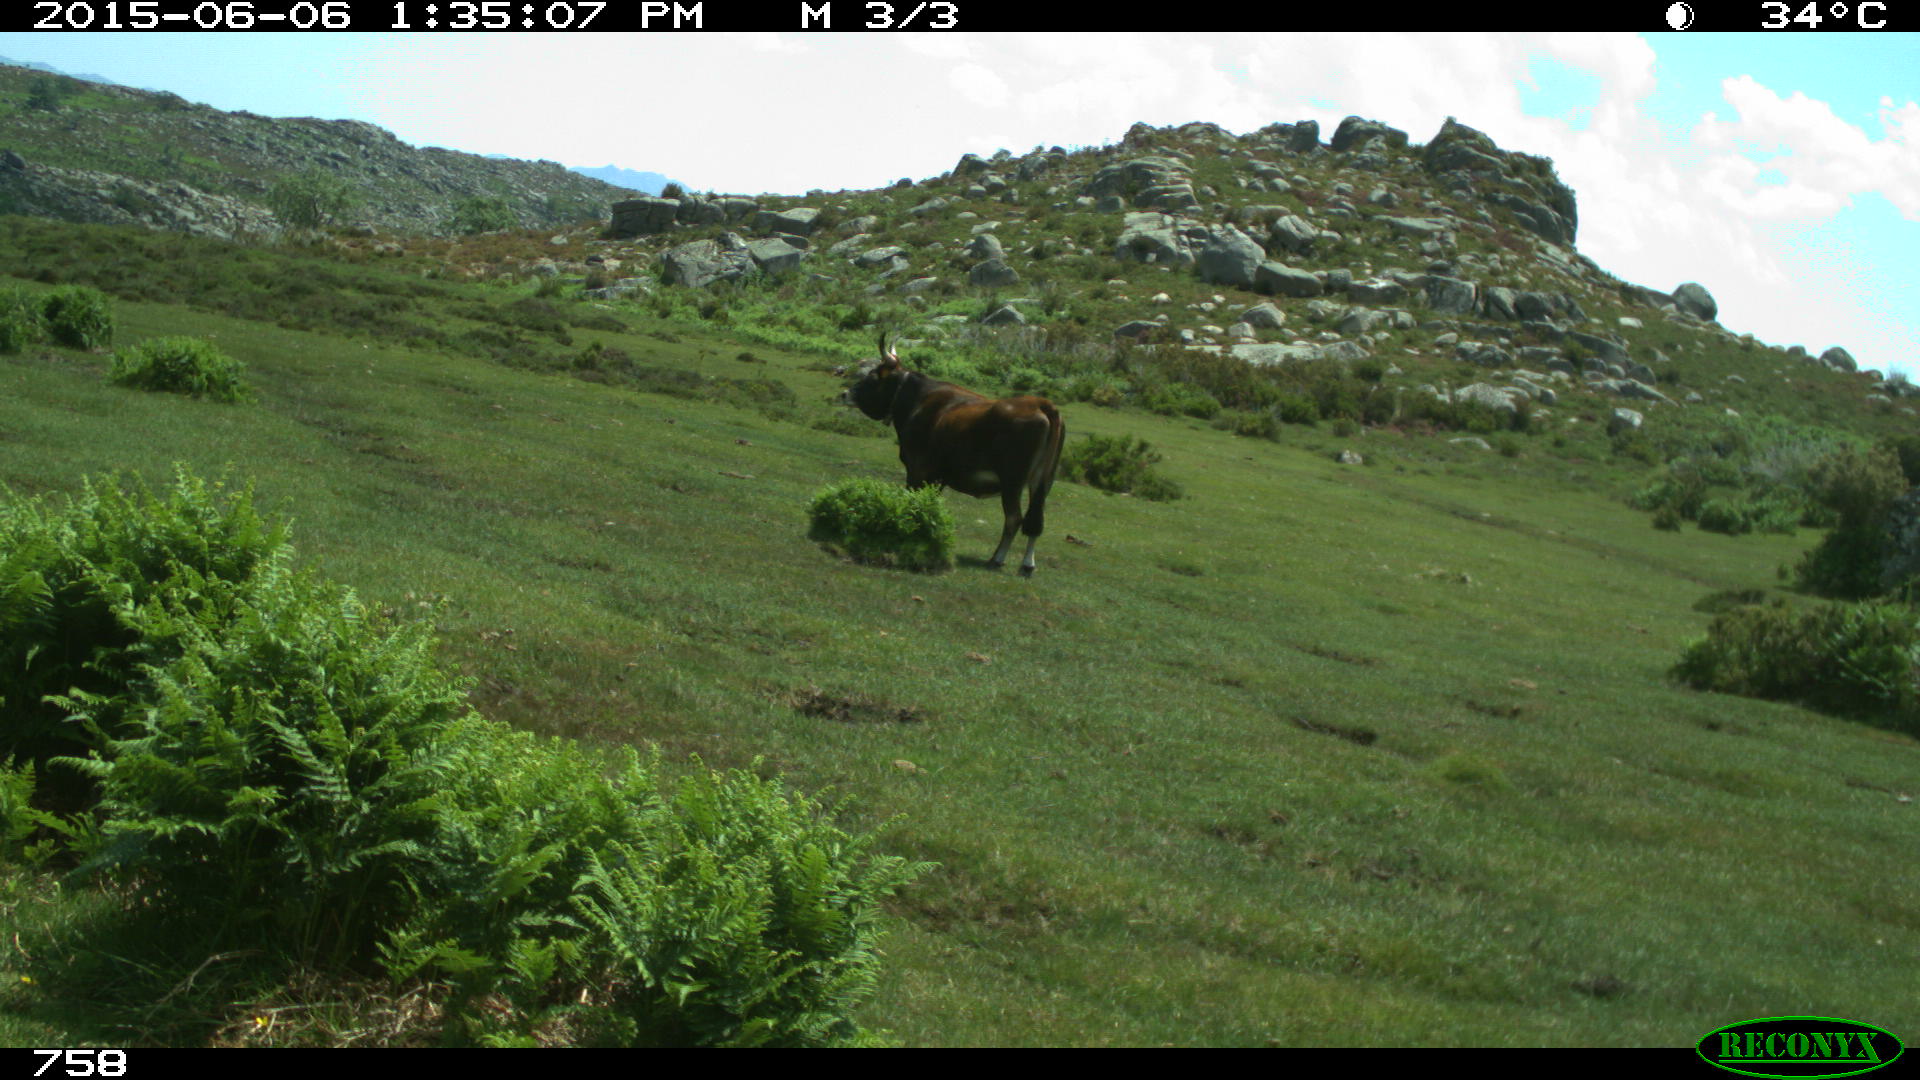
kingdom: Animalia
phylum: Chordata
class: Mammalia
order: Artiodactyla
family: Bovidae
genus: Bos
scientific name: Bos taurus
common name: Domesticated cattle
